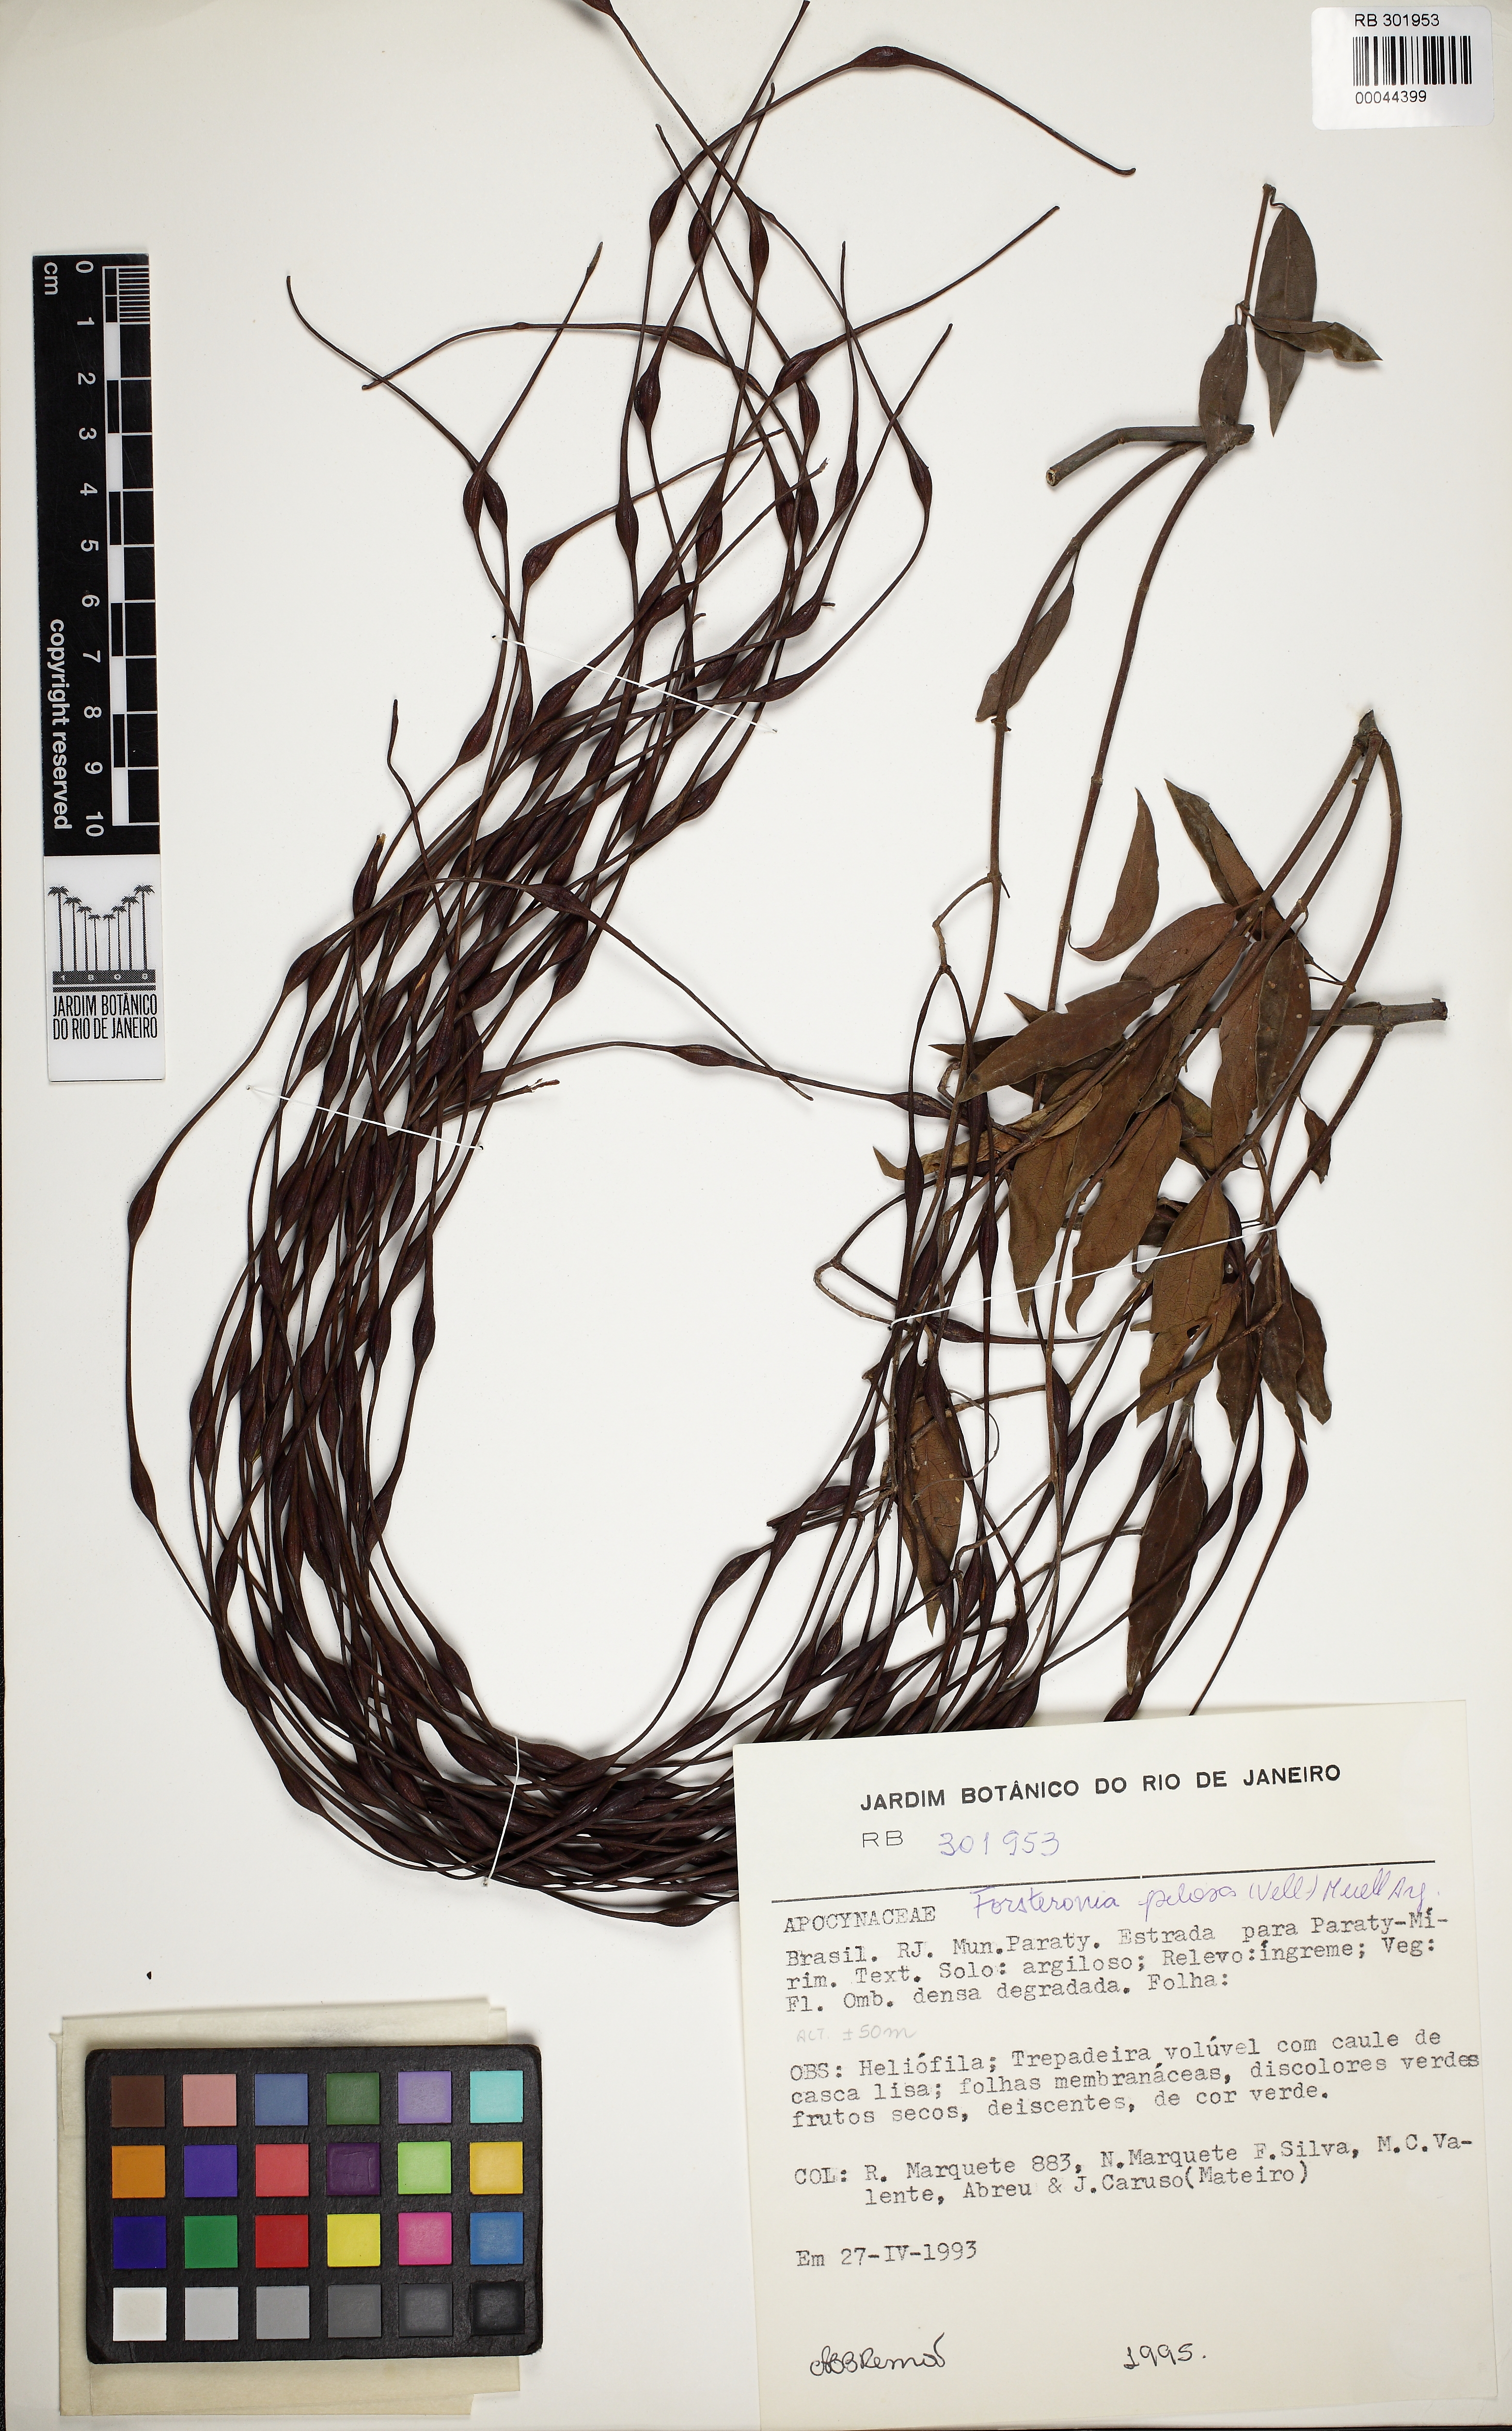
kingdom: Plantae
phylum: Tracheophyta
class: Magnoliopsida
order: Gentianales
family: Apocynaceae
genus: Forsteronia
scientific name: Forsteronia pilosa
